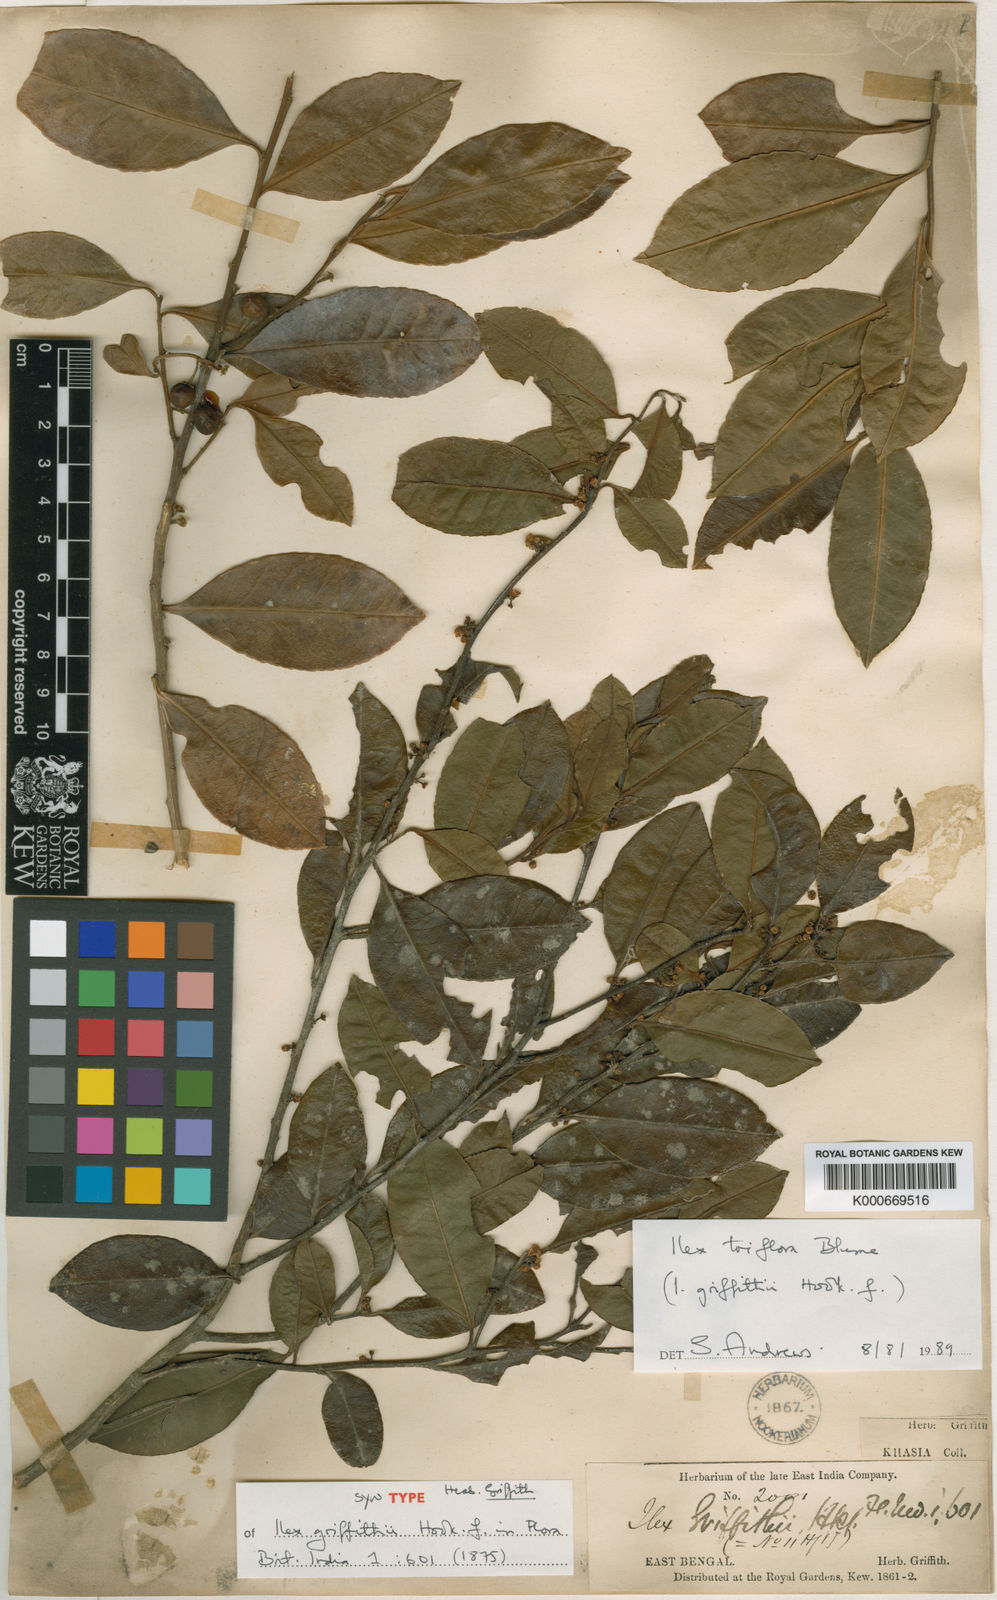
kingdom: Plantae
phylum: Tracheophyta
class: Magnoliopsida
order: Aquifoliales
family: Aquifoliaceae
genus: Ilex
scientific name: Ilex triflora
